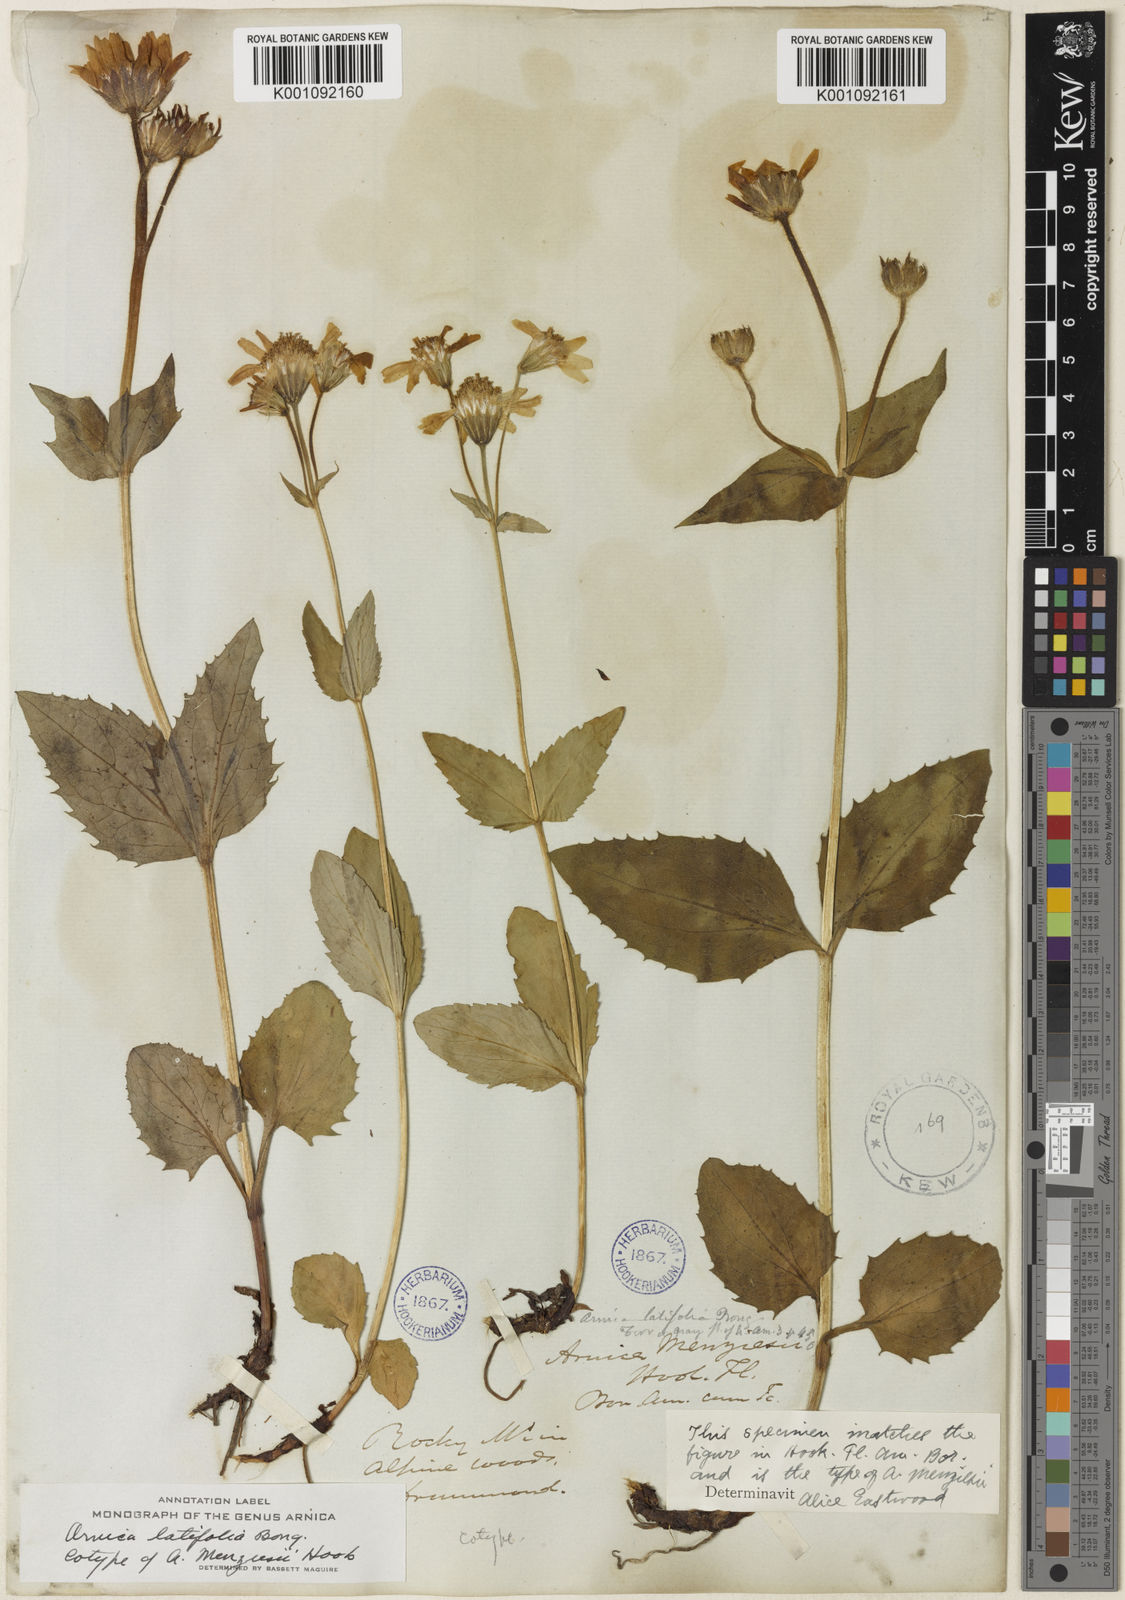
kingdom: Plantae
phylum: Tracheophyta
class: Magnoliopsida
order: Asterales
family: Asteraceae
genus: Arnica
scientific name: Arnica latifolia
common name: Arnica
